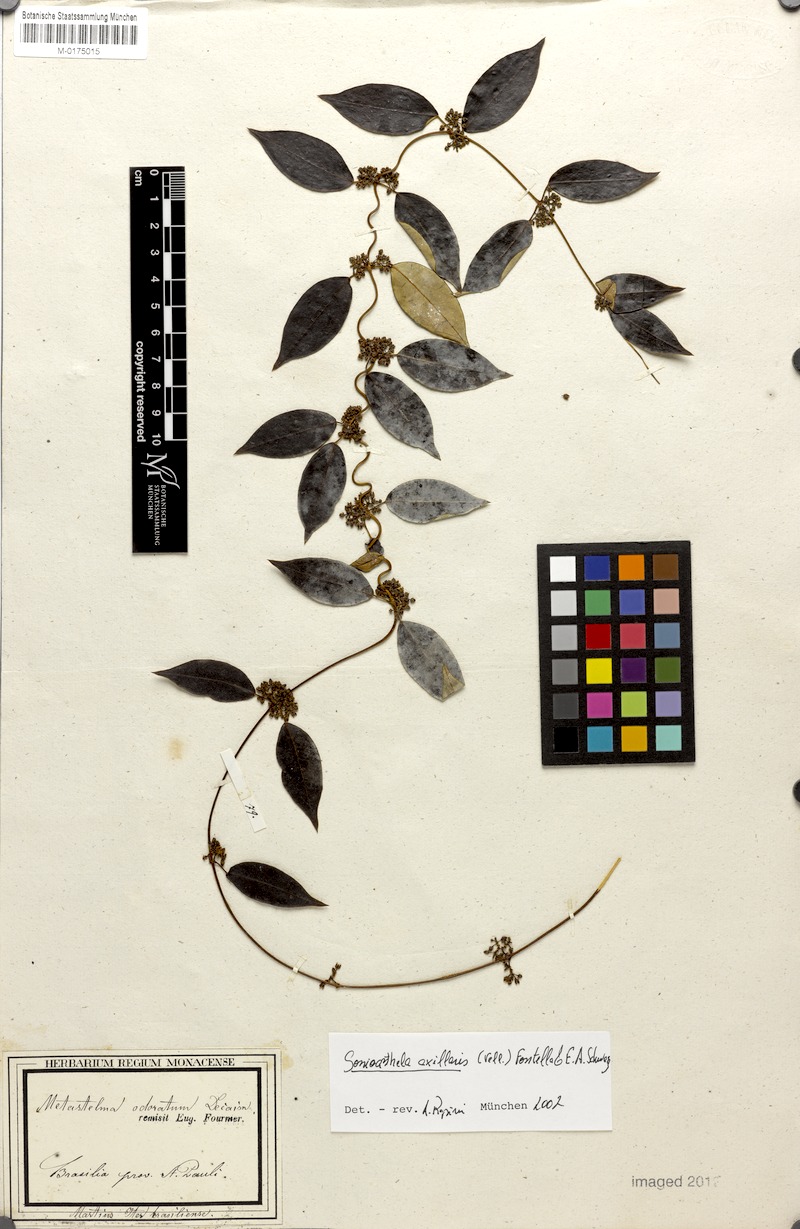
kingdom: Plantae
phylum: Tracheophyta
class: Magnoliopsida
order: Gentianales
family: Apocynaceae
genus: Peplonia
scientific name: Peplonia axillaris
